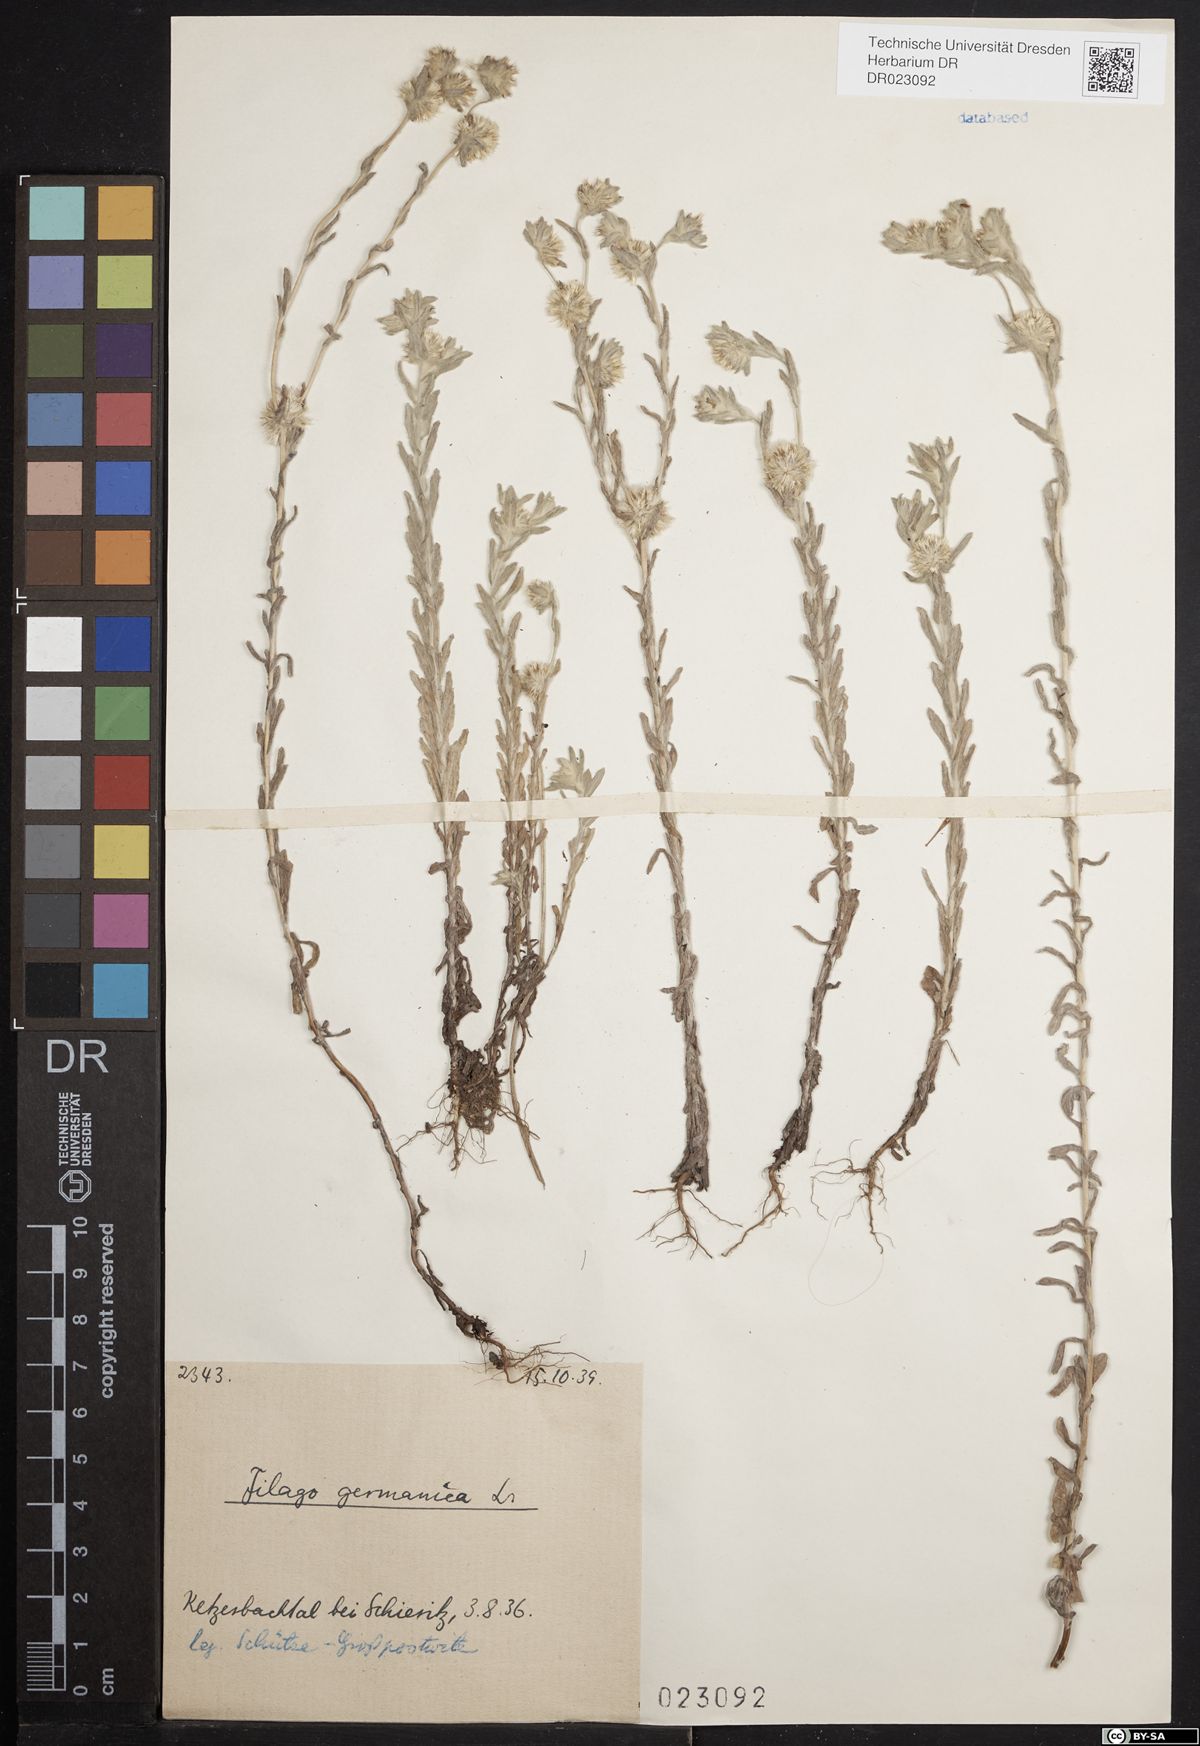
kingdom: Plantae
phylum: Tracheophyta
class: Magnoliopsida
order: Asterales
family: Asteraceae
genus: Filago
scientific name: Filago germanica
